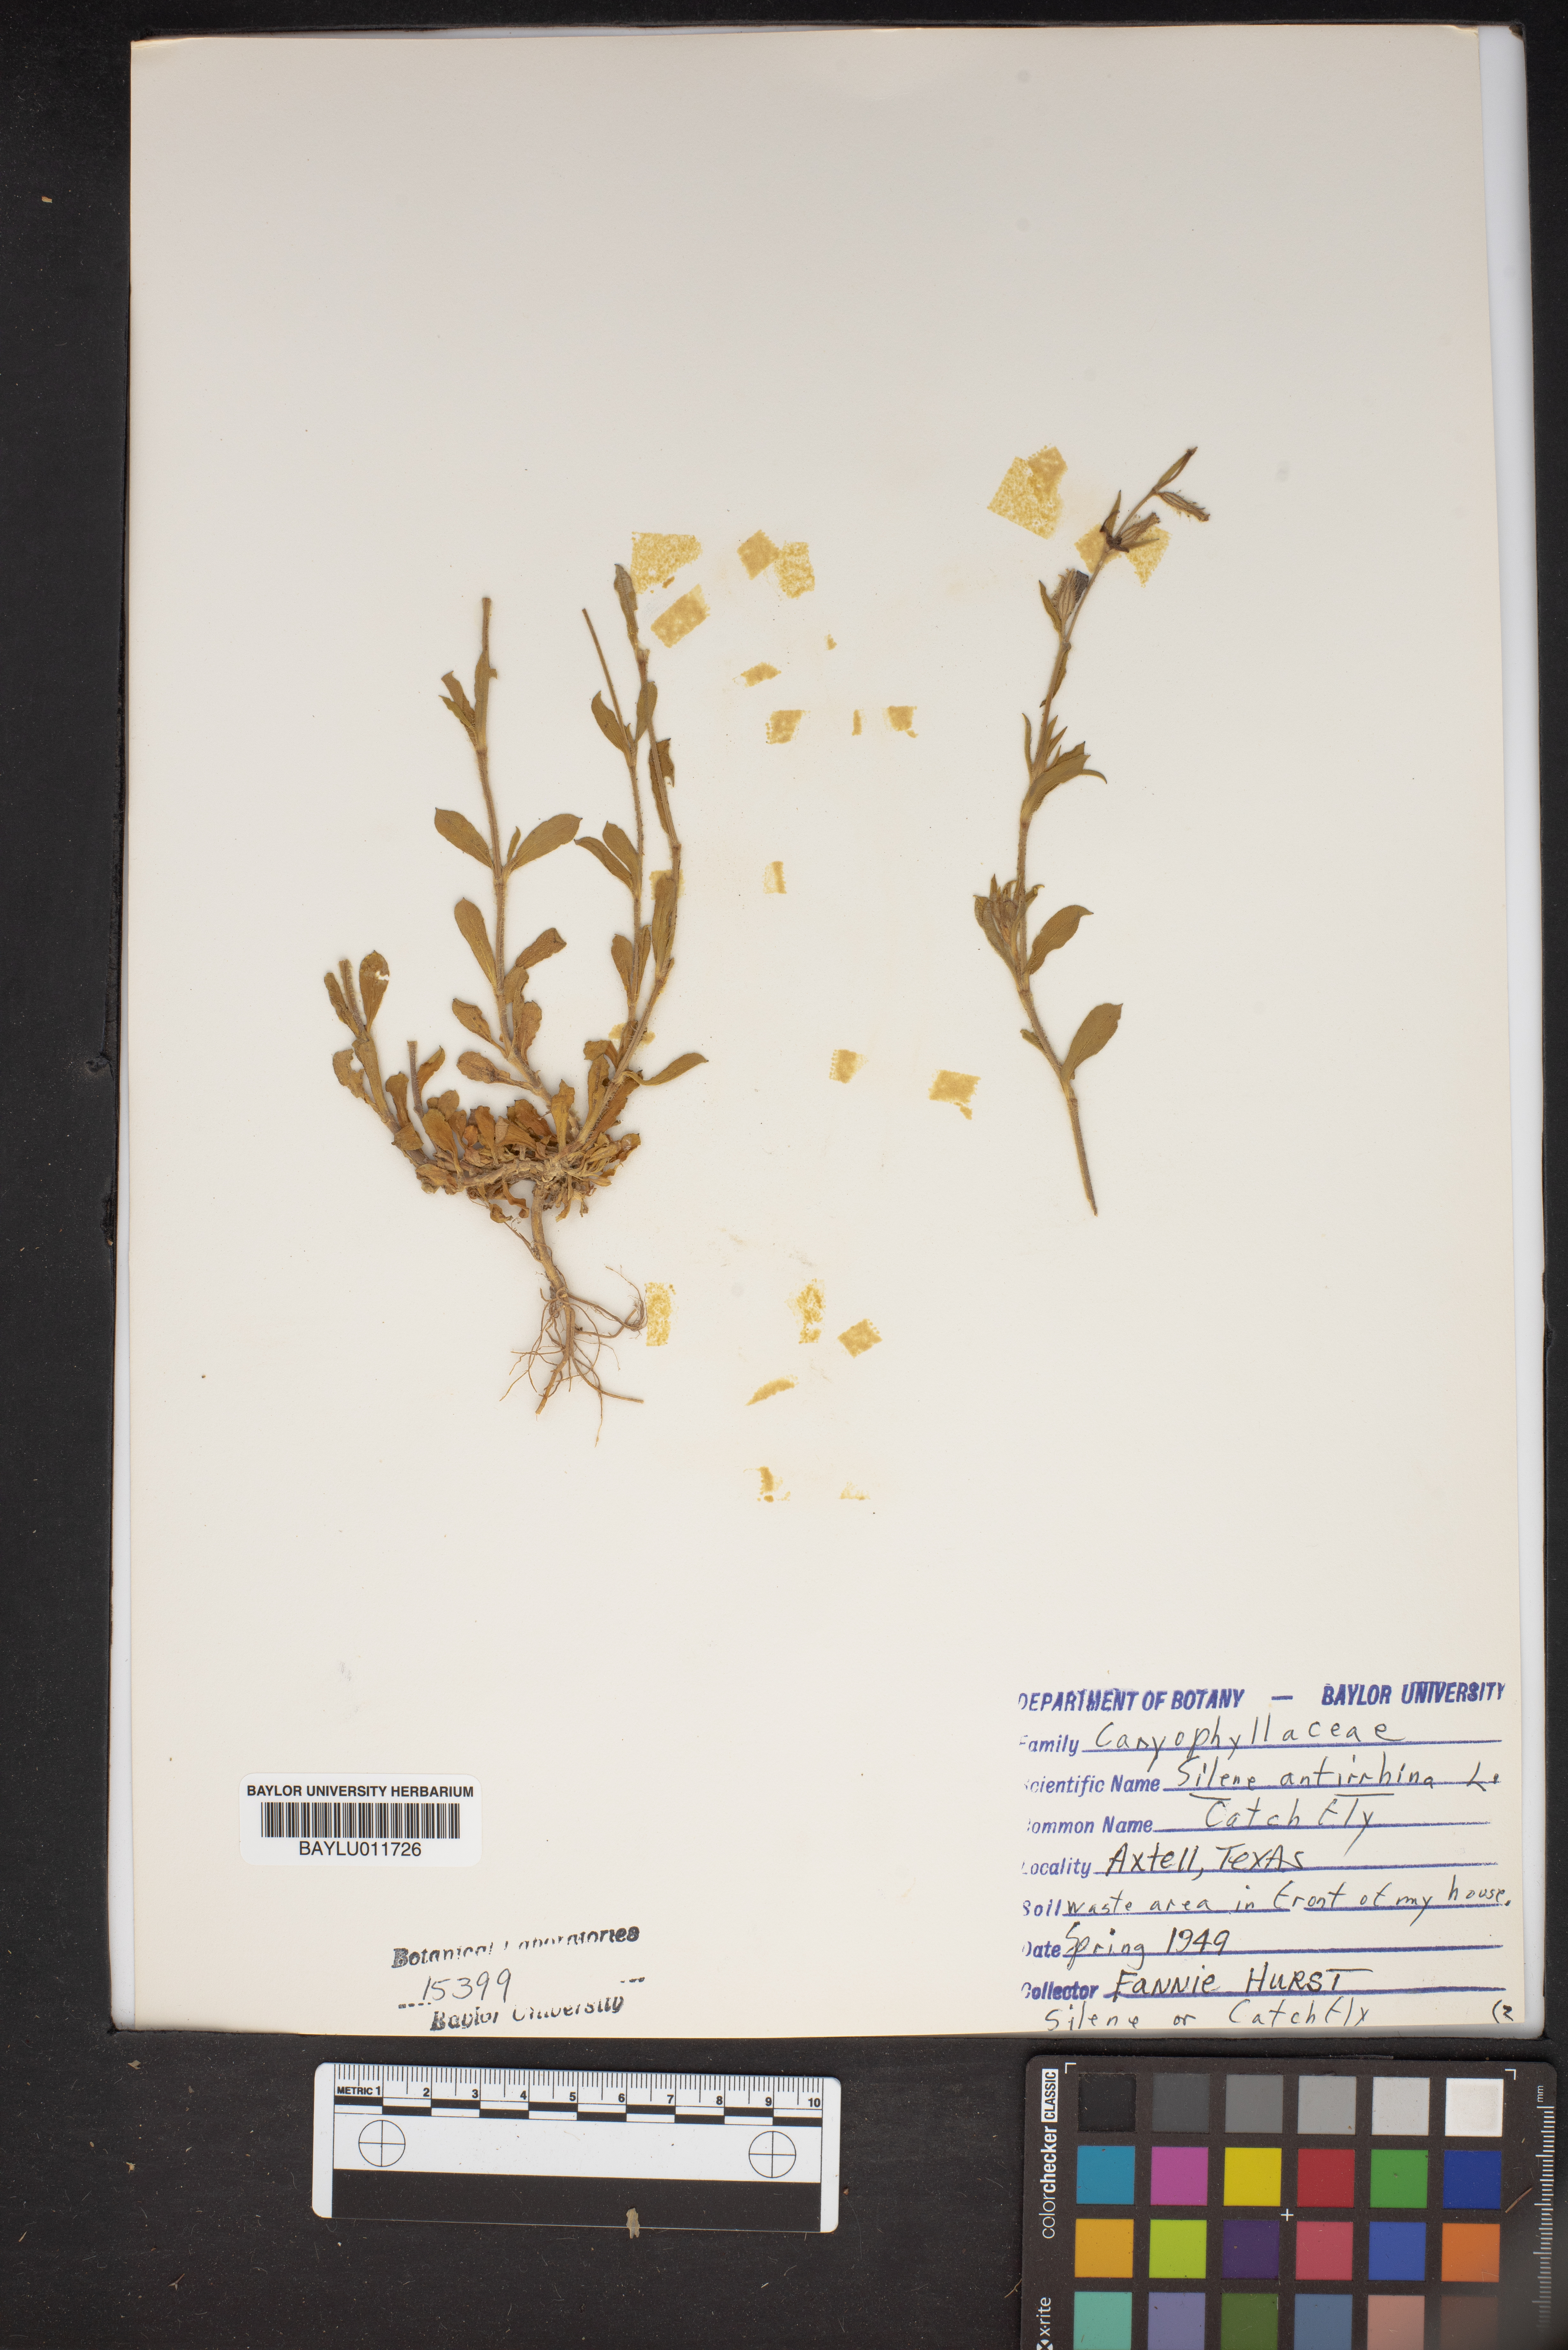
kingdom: Plantae
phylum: Tracheophyta
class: Magnoliopsida
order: Caryophyllales
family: Caryophyllaceae
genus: Silene
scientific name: Silene antirrhina
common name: Sleepy catchfly
